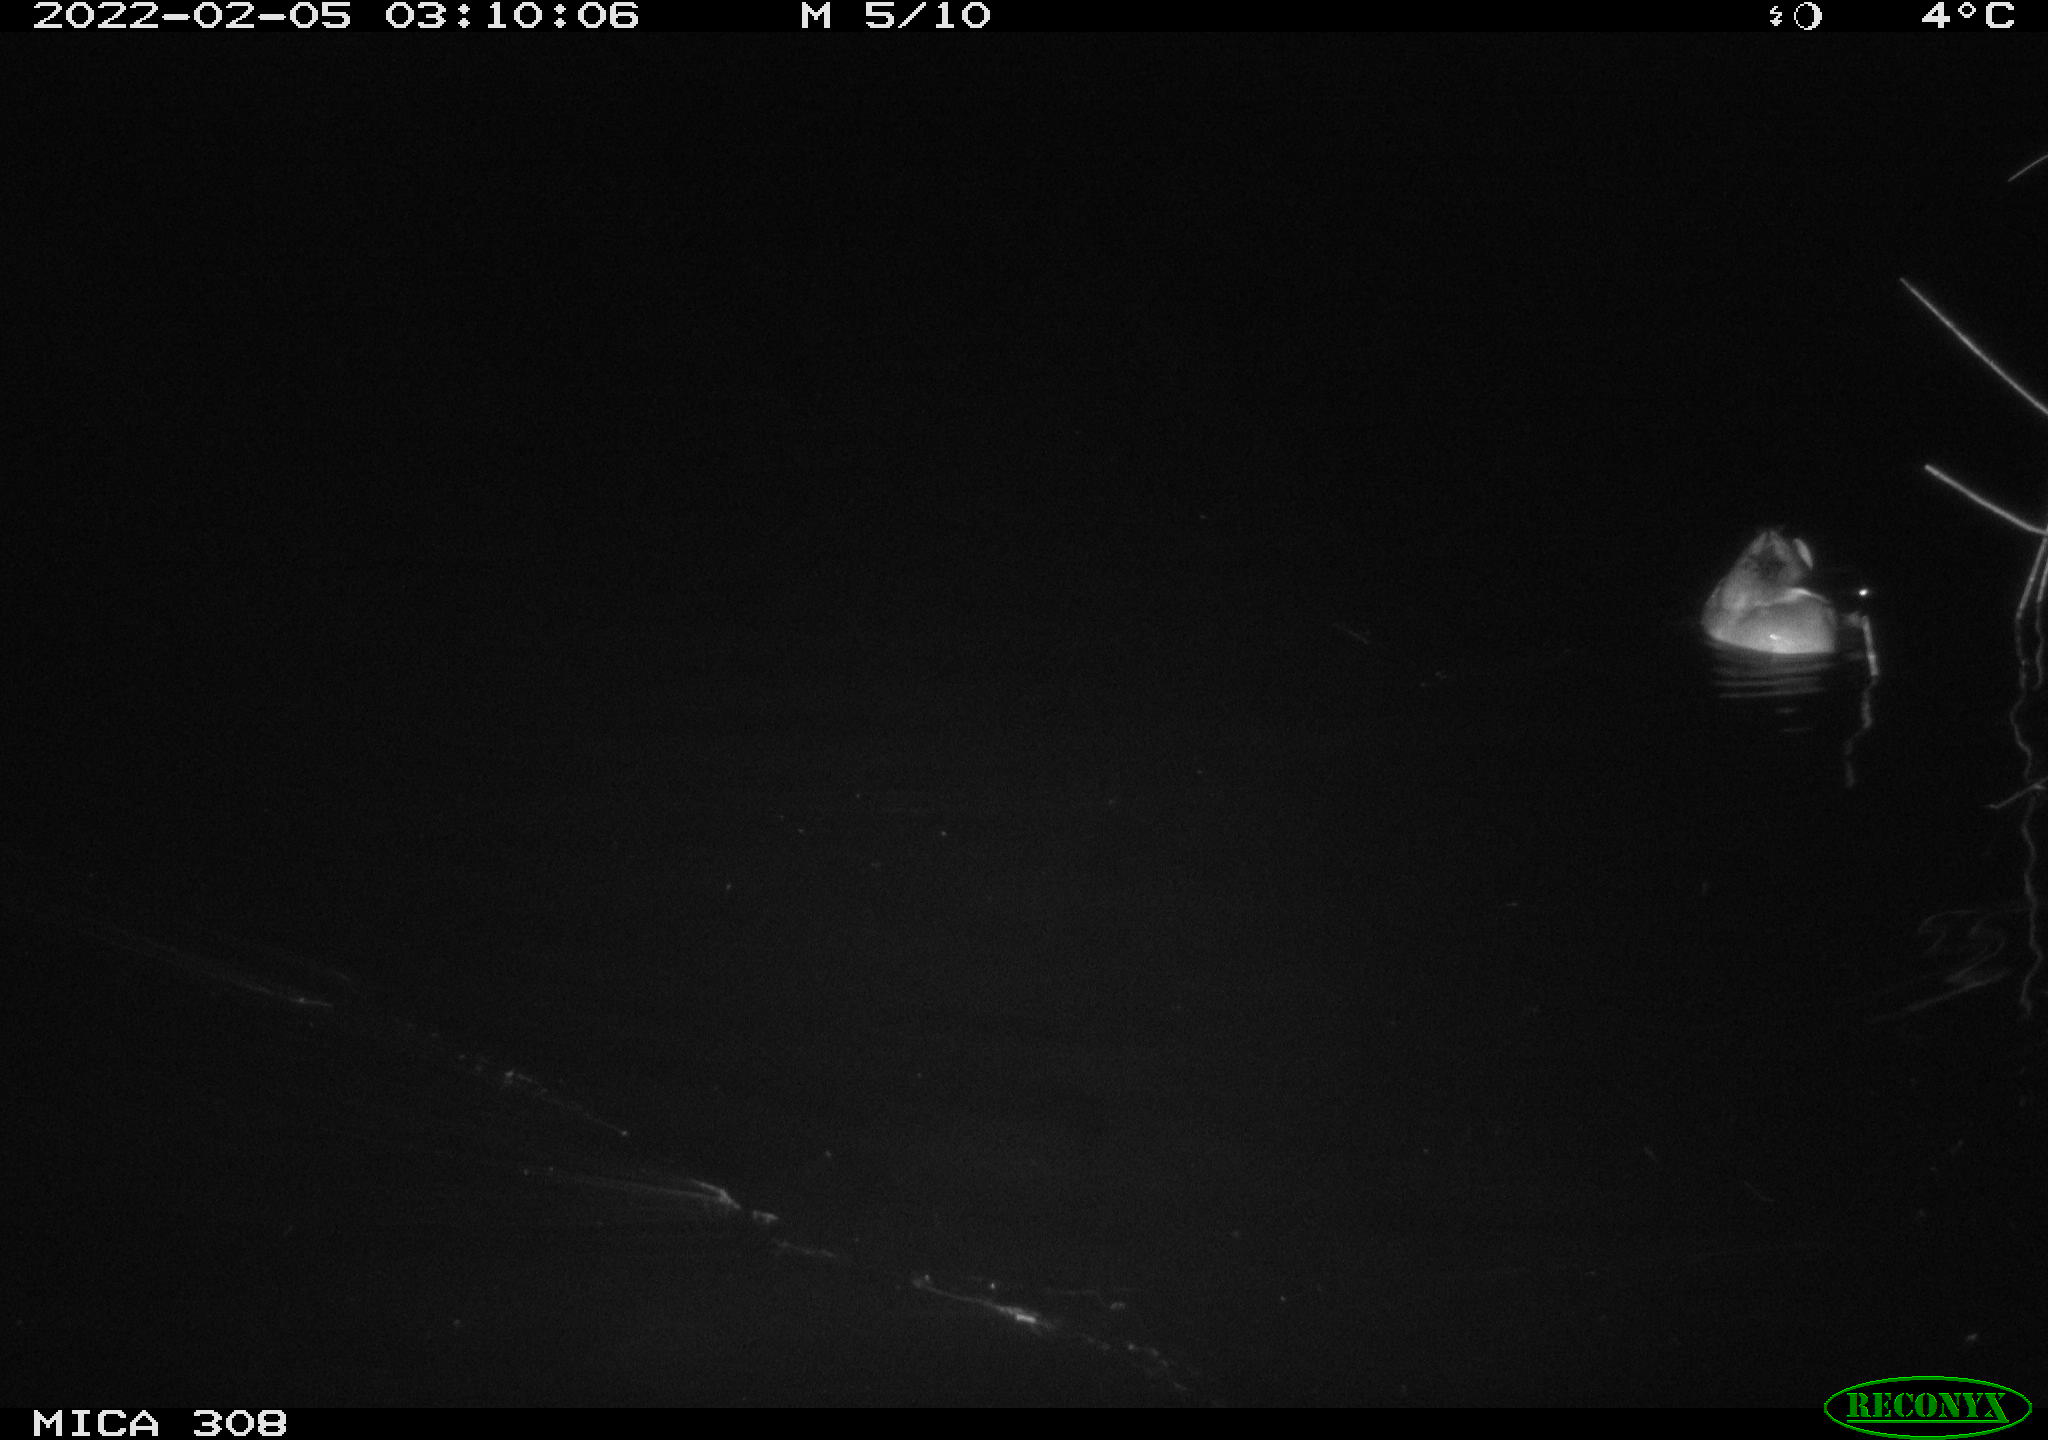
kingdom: Animalia
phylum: Chordata
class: Aves
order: Gruiformes
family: Rallidae
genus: Gallinula
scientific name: Gallinula chloropus
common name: Common moorhen
